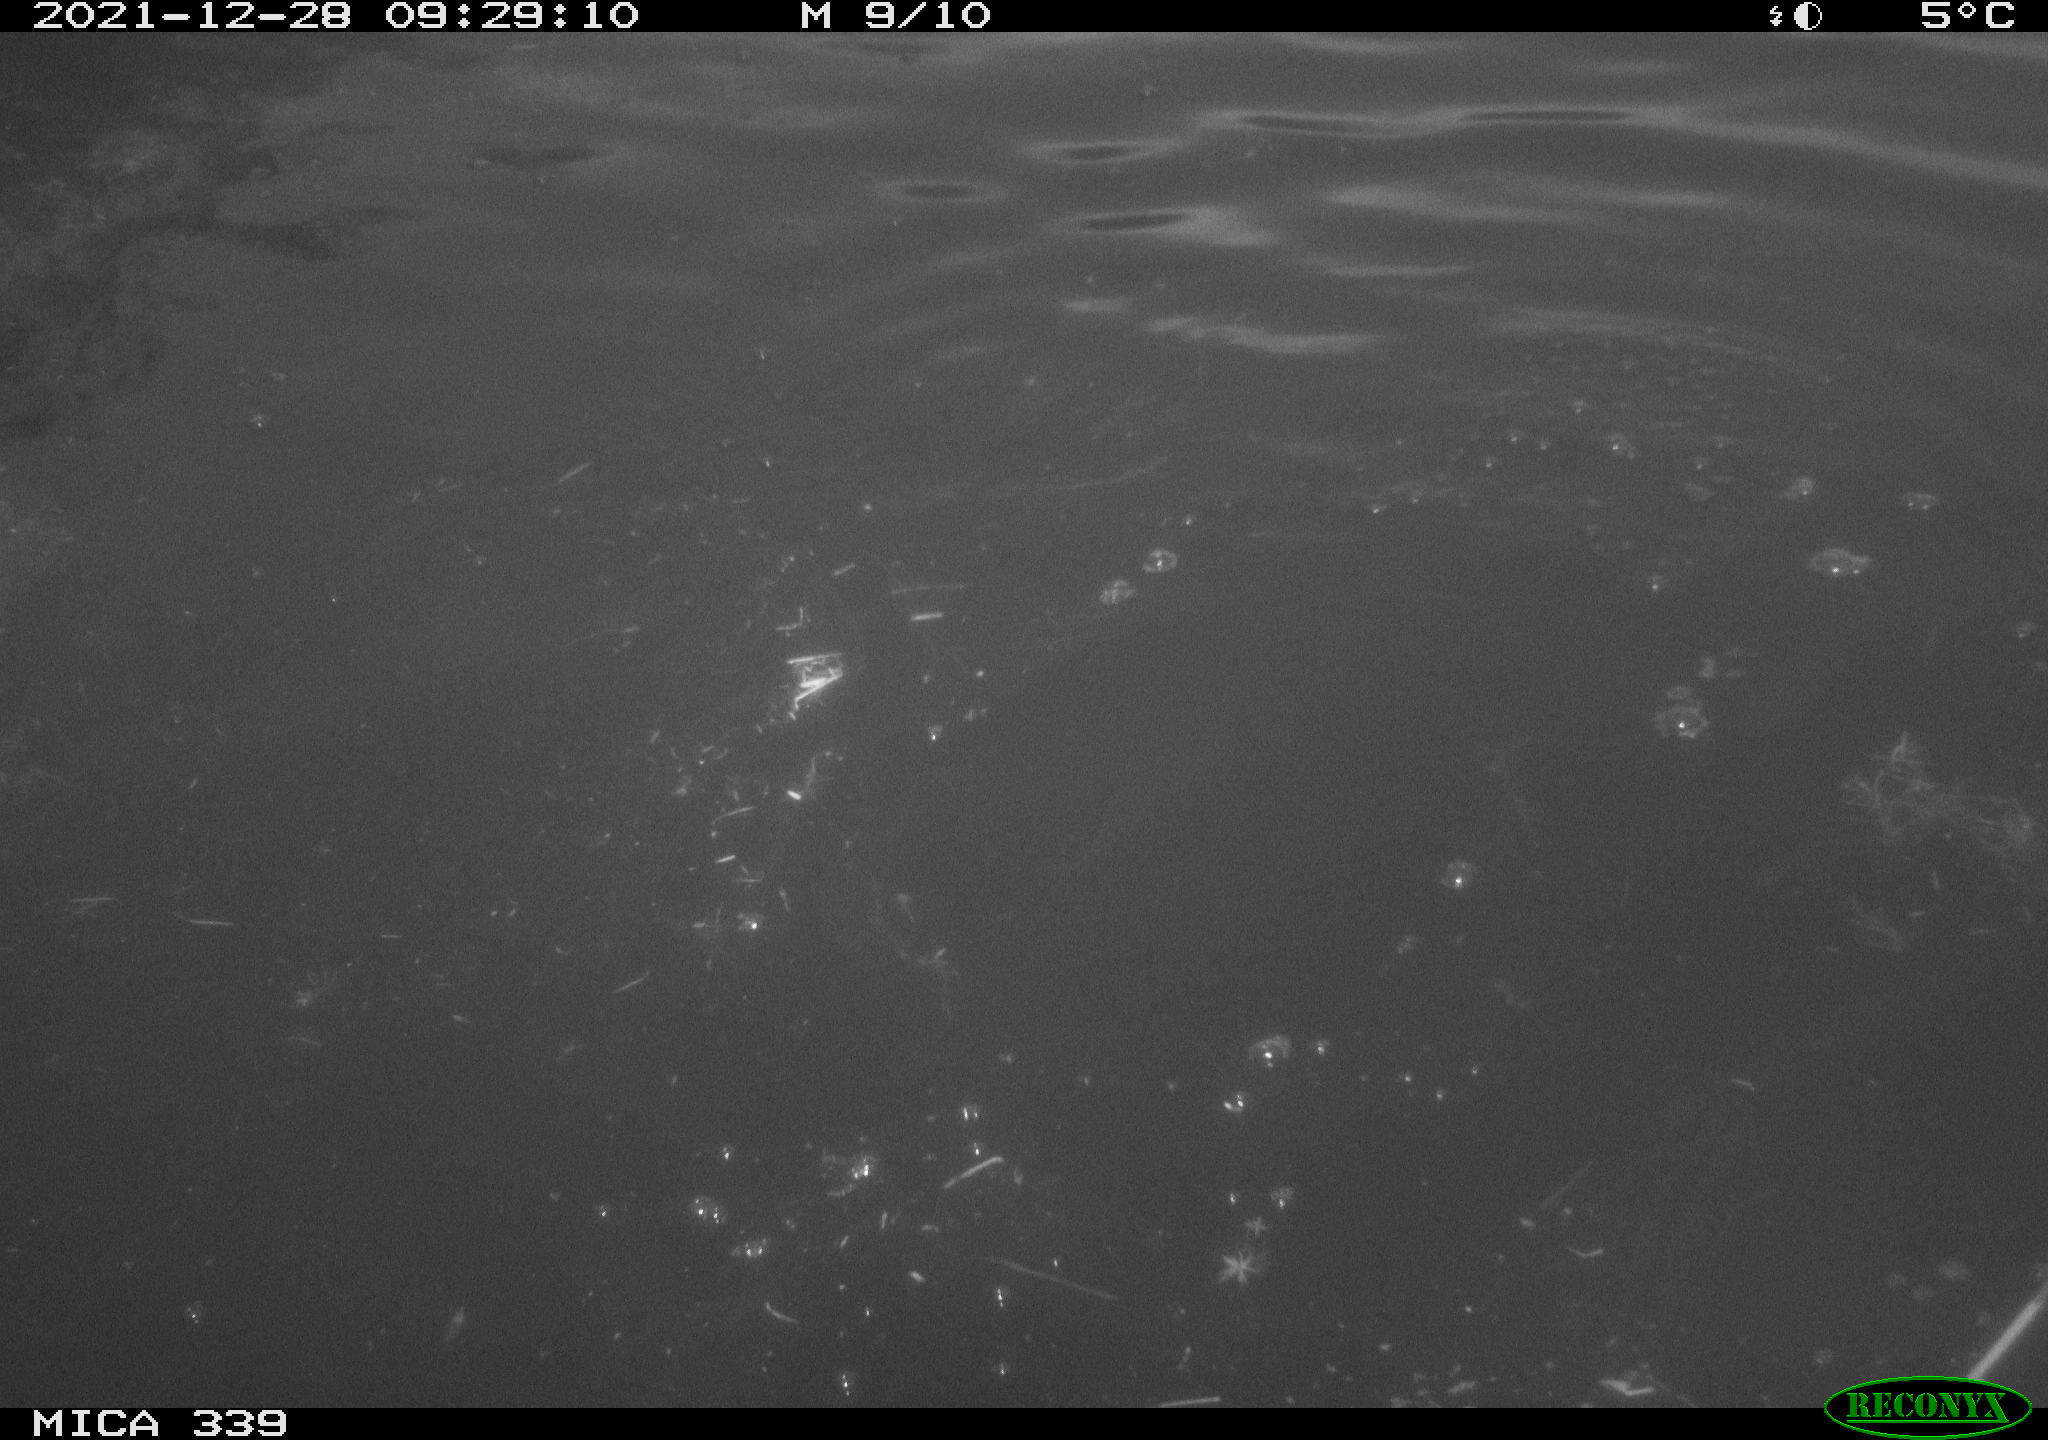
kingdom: Animalia
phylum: Chordata
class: Aves
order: Suliformes
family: Phalacrocoracidae
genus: Phalacrocorax
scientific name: Phalacrocorax carbo
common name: Great cormorant
